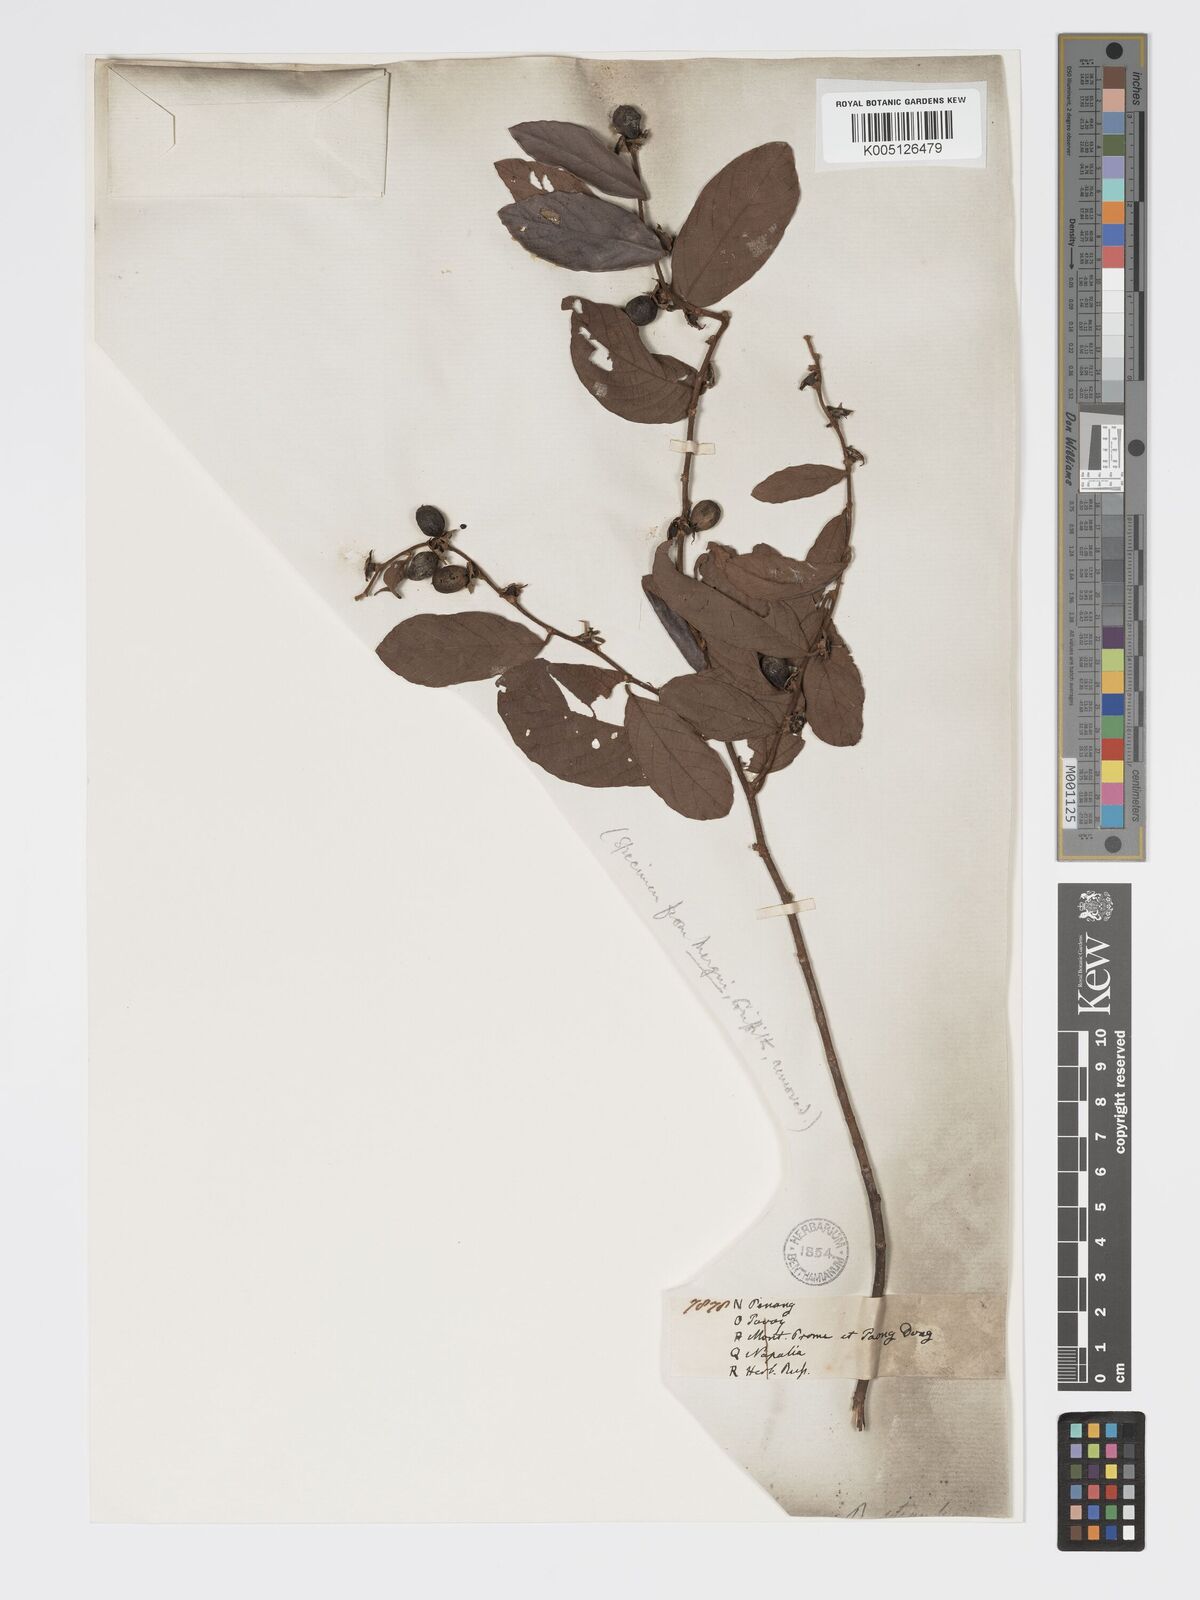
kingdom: Plantae
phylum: Tracheophyta
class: Magnoliopsida
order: Malpighiales
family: Phyllanthaceae
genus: Bridelia
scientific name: Bridelia stipularis
